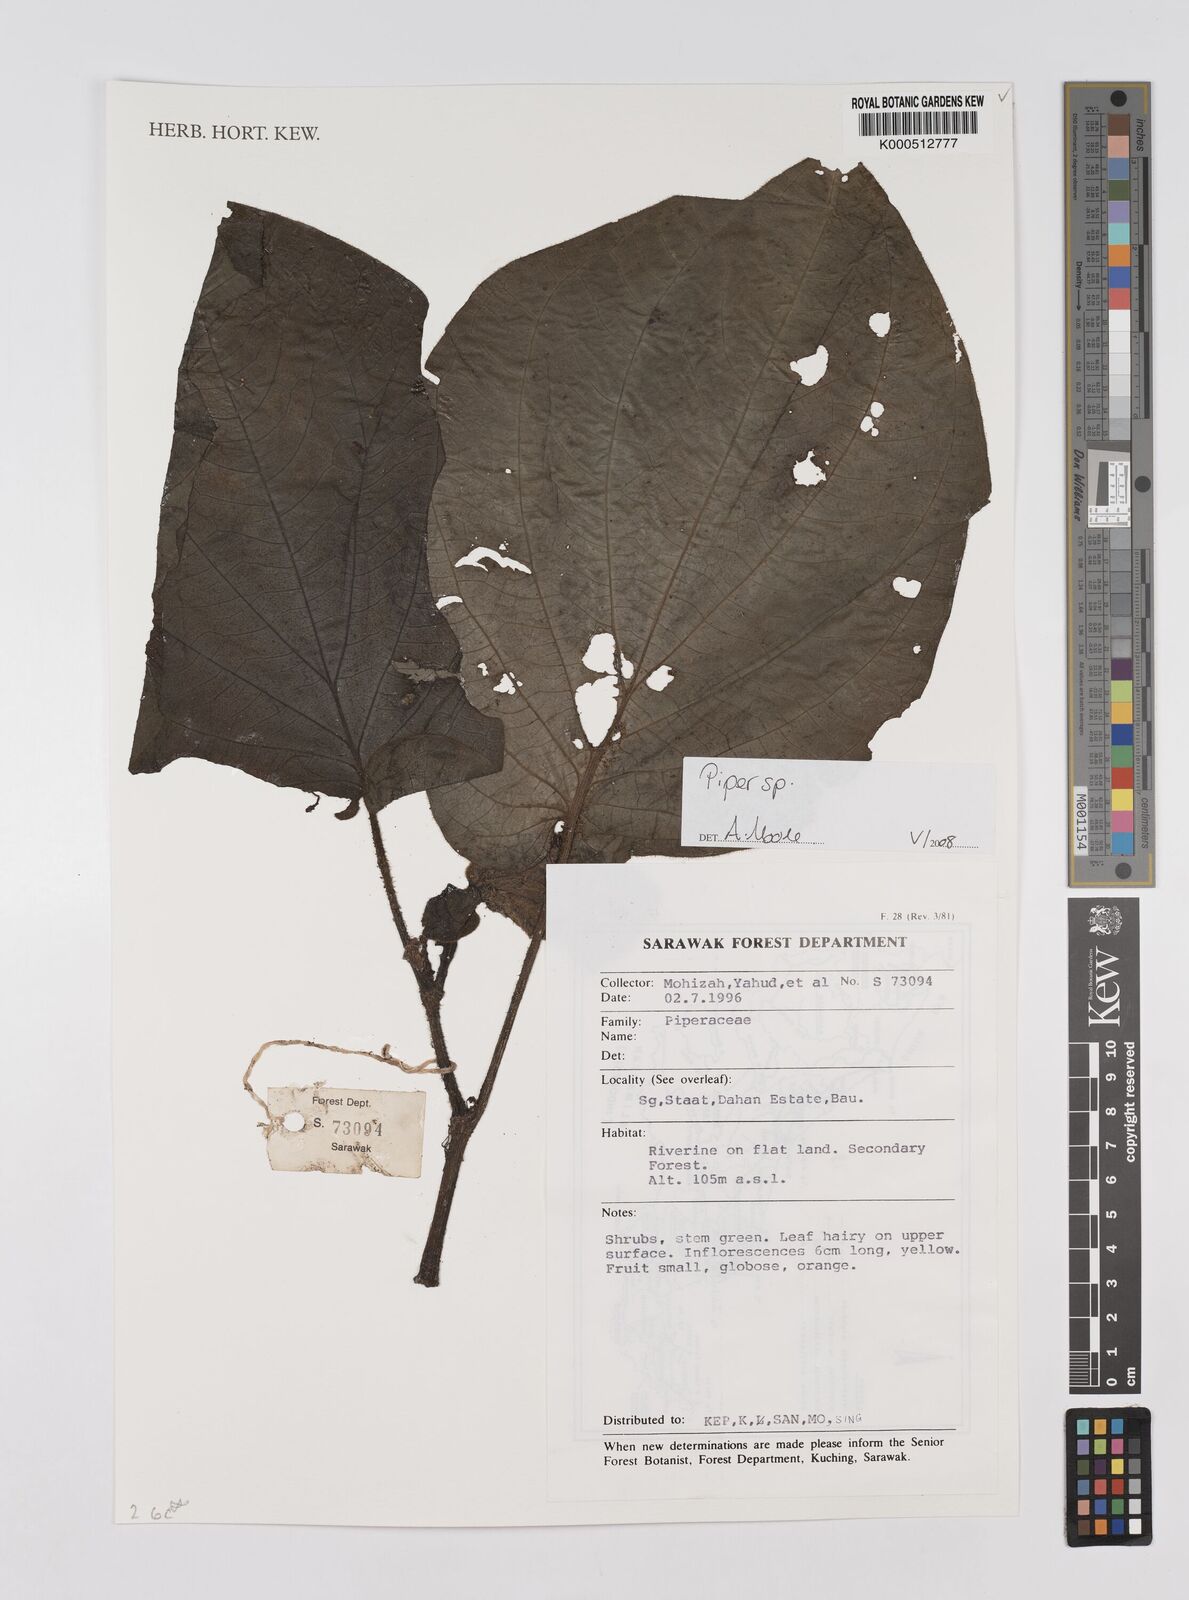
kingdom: Plantae
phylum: Tracheophyta
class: Magnoliopsida
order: Piperales
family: Piperaceae
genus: Piper
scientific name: Piper
